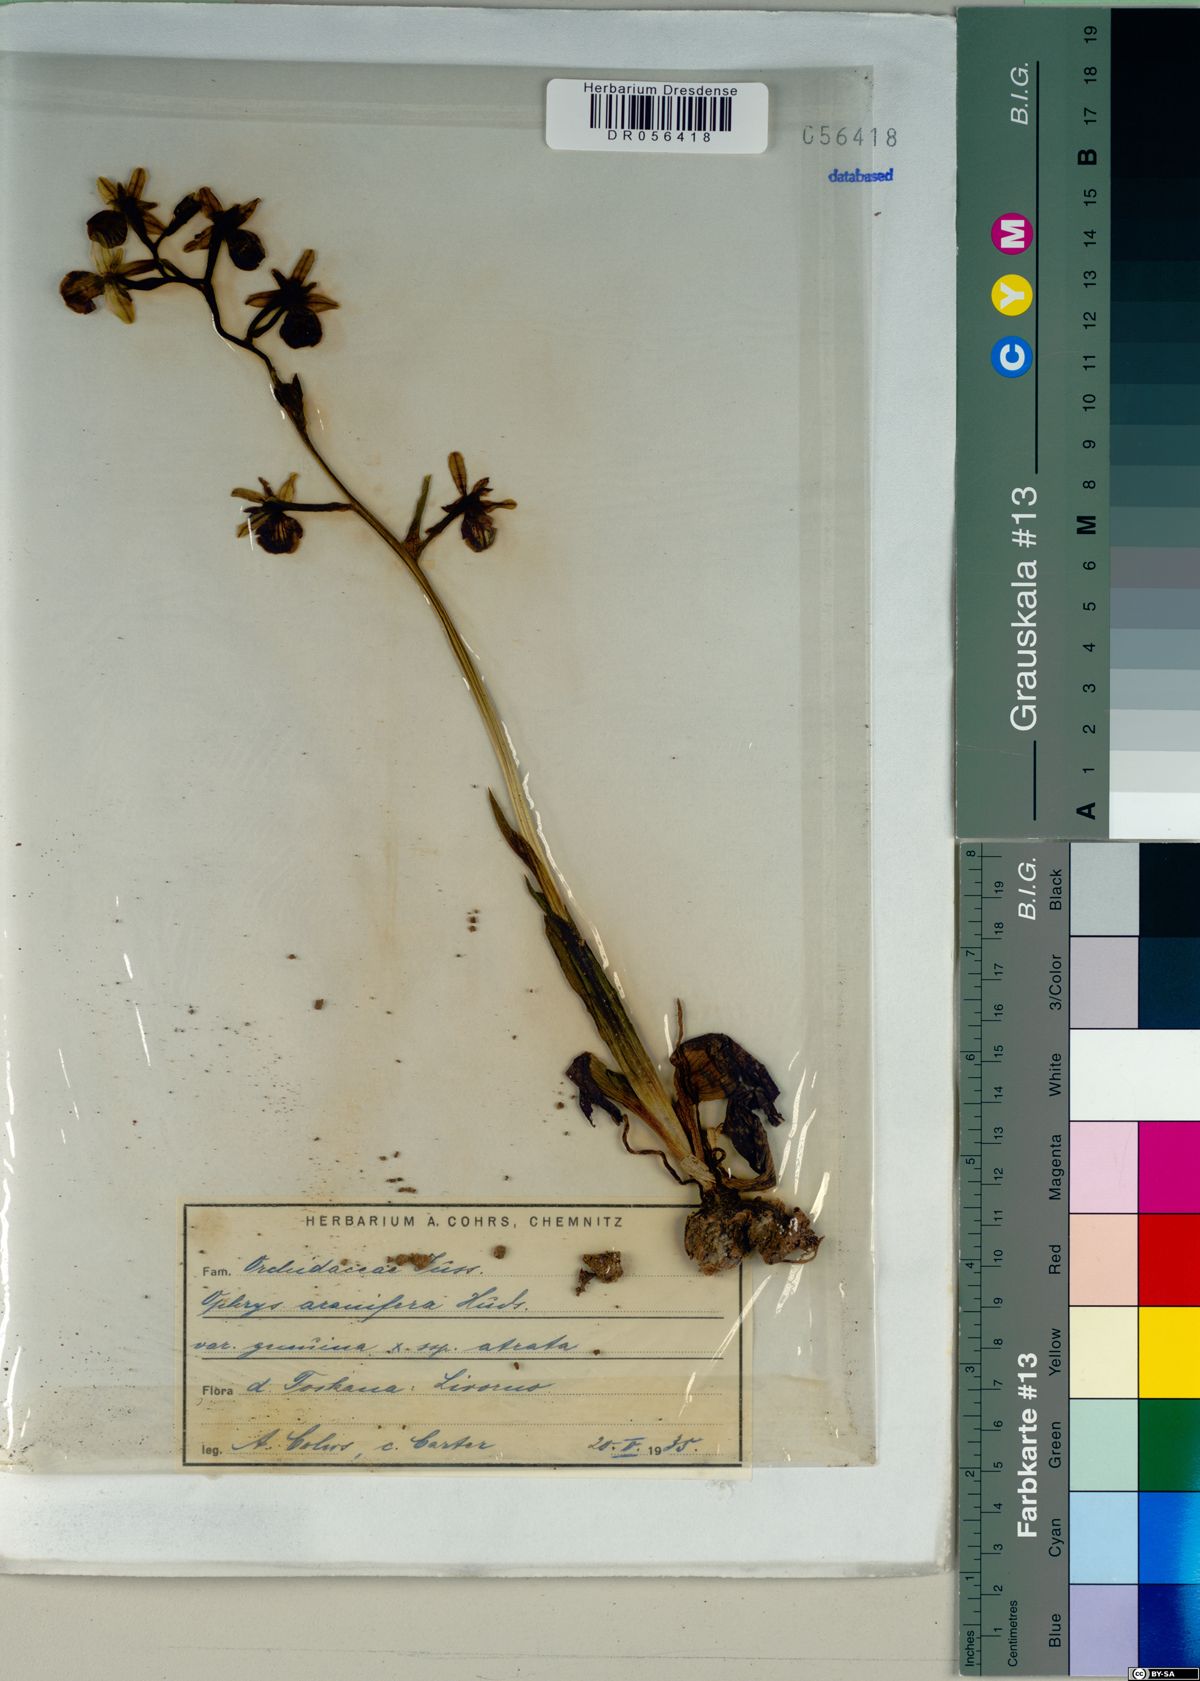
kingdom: Plantae
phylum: Tracheophyta
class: Liliopsida
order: Asparagales
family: Orchidaceae
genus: Ophrys
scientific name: Ophrys sphegodes
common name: Early spider-orchid
